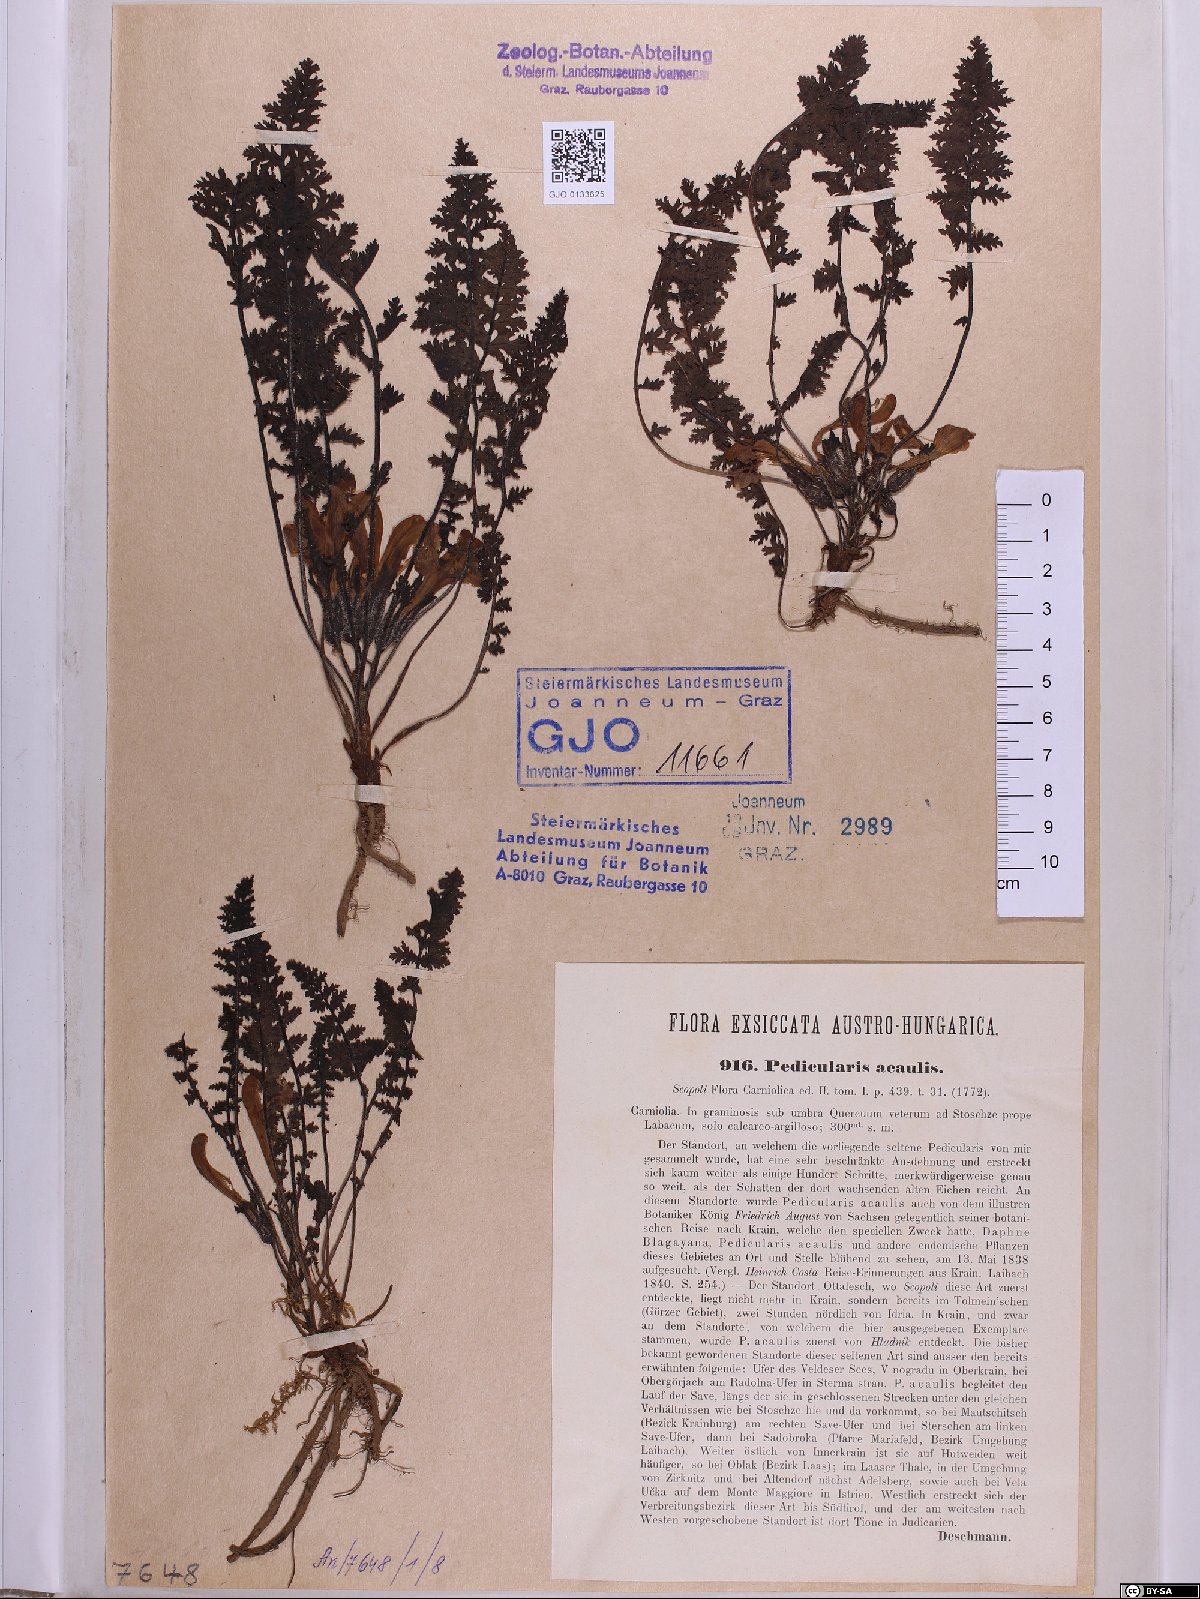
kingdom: Plantae
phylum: Tracheophyta
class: Magnoliopsida
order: Lamiales
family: Orobanchaceae
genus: Pedicularis
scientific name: Pedicularis acaulis
